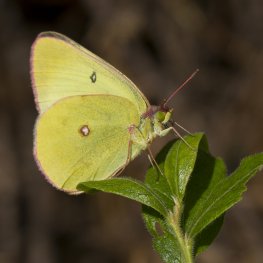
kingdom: Animalia
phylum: Arthropoda
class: Insecta
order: Lepidoptera
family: Pieridae
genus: Colias
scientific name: Colias interior
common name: Pink-edged Sulphur
